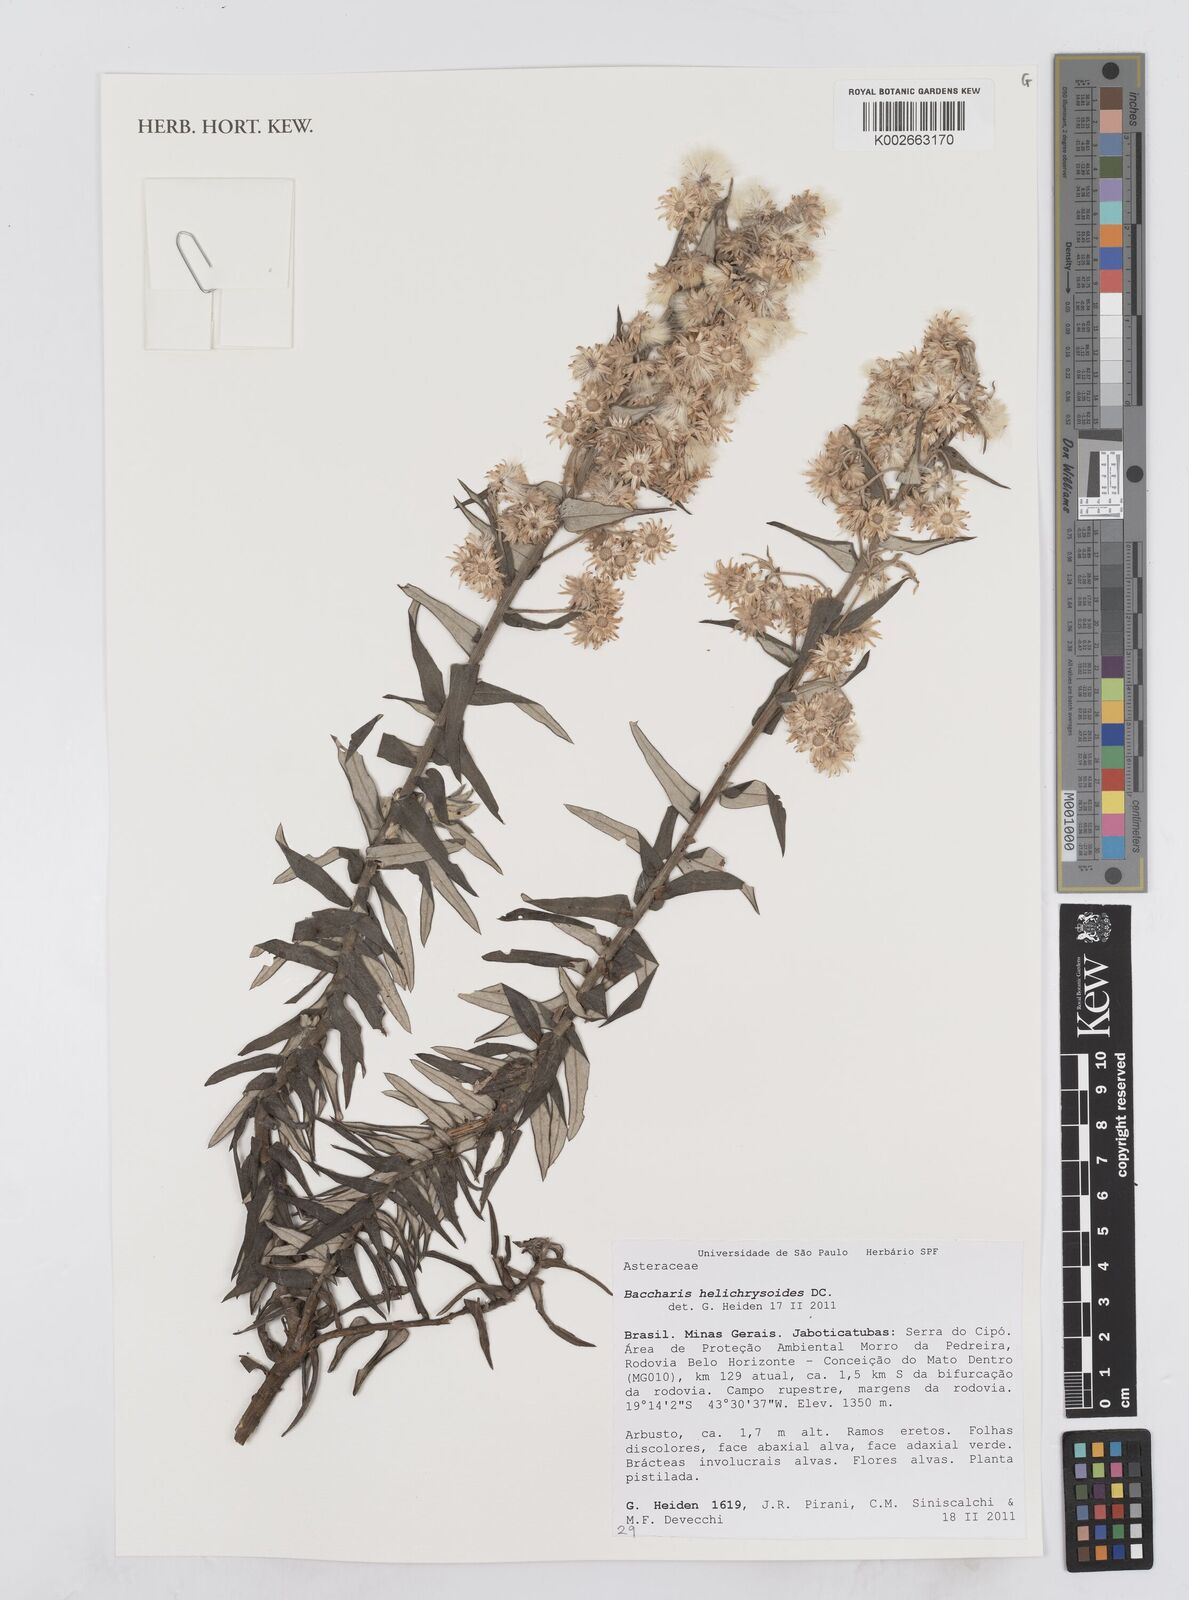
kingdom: Plantae
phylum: Tracheophyta
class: Magnoliopsida
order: Asterales
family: Asteraceae
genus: Baccharis
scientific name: Baccharis helichrysoides
